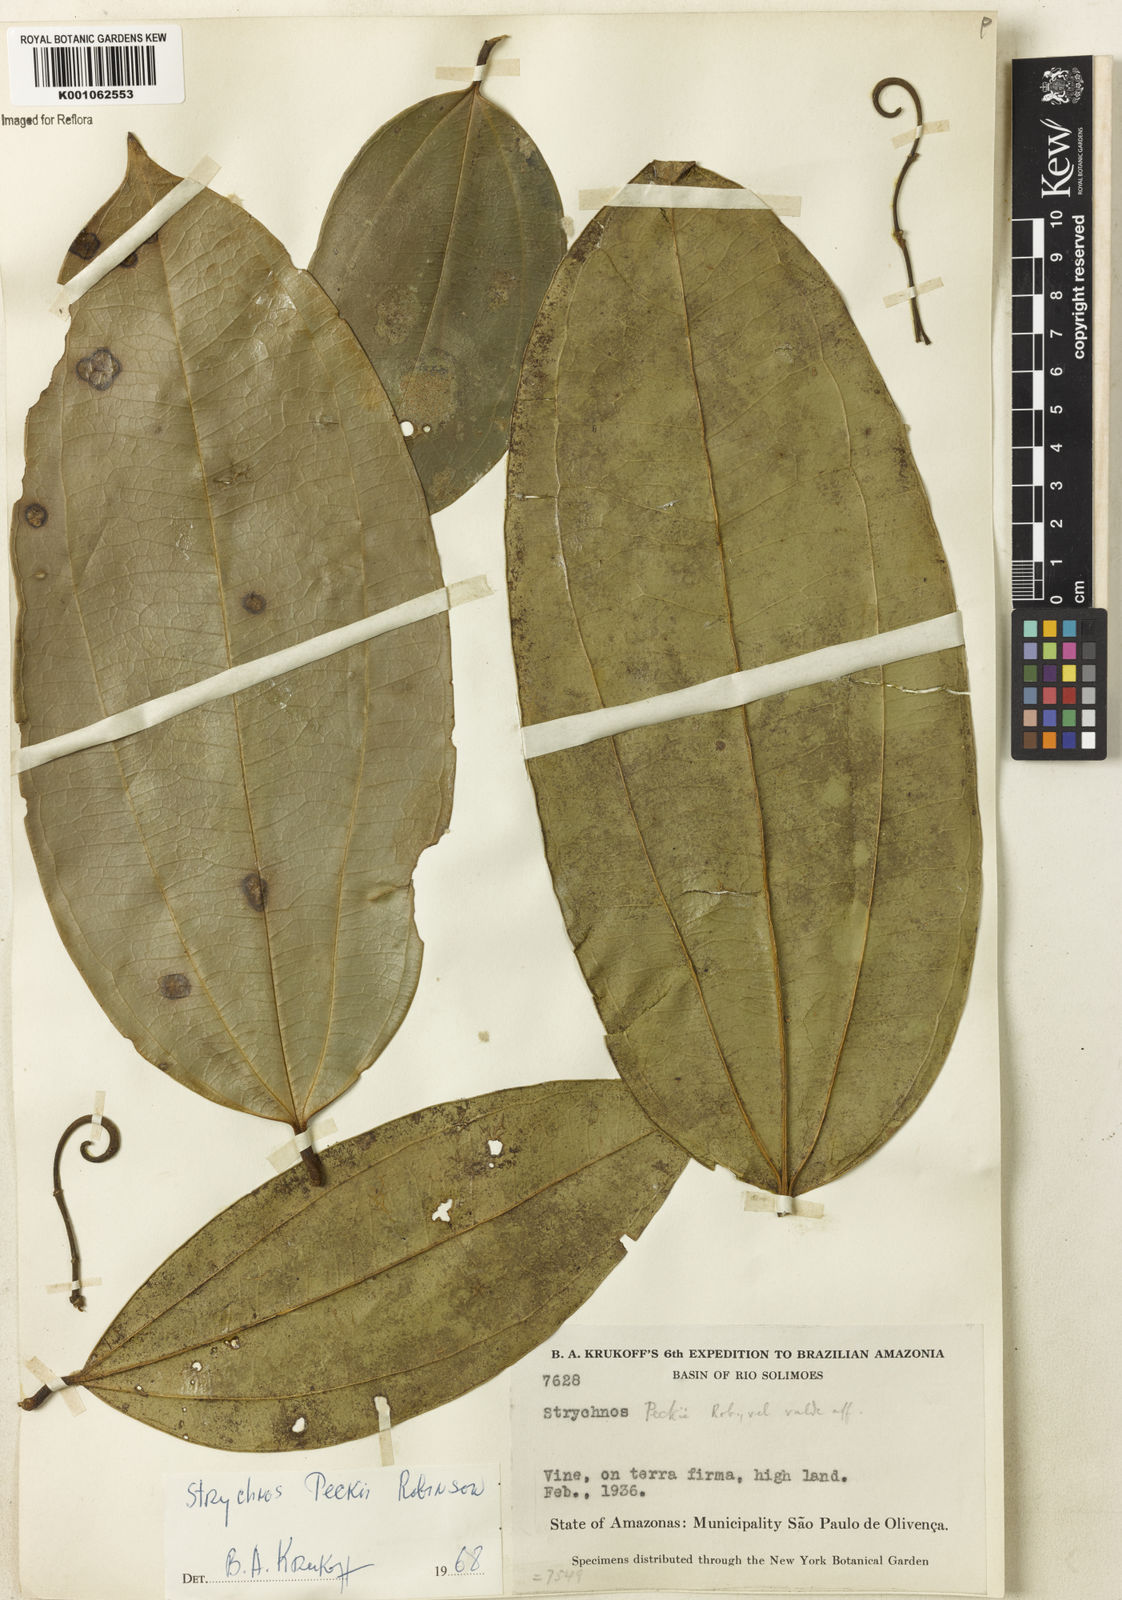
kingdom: Plantae
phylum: Tracheophyta
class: Magnoliopsida
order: Gentianales
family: Loganiaceae
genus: Strychnos
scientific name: Strychnos peckii
